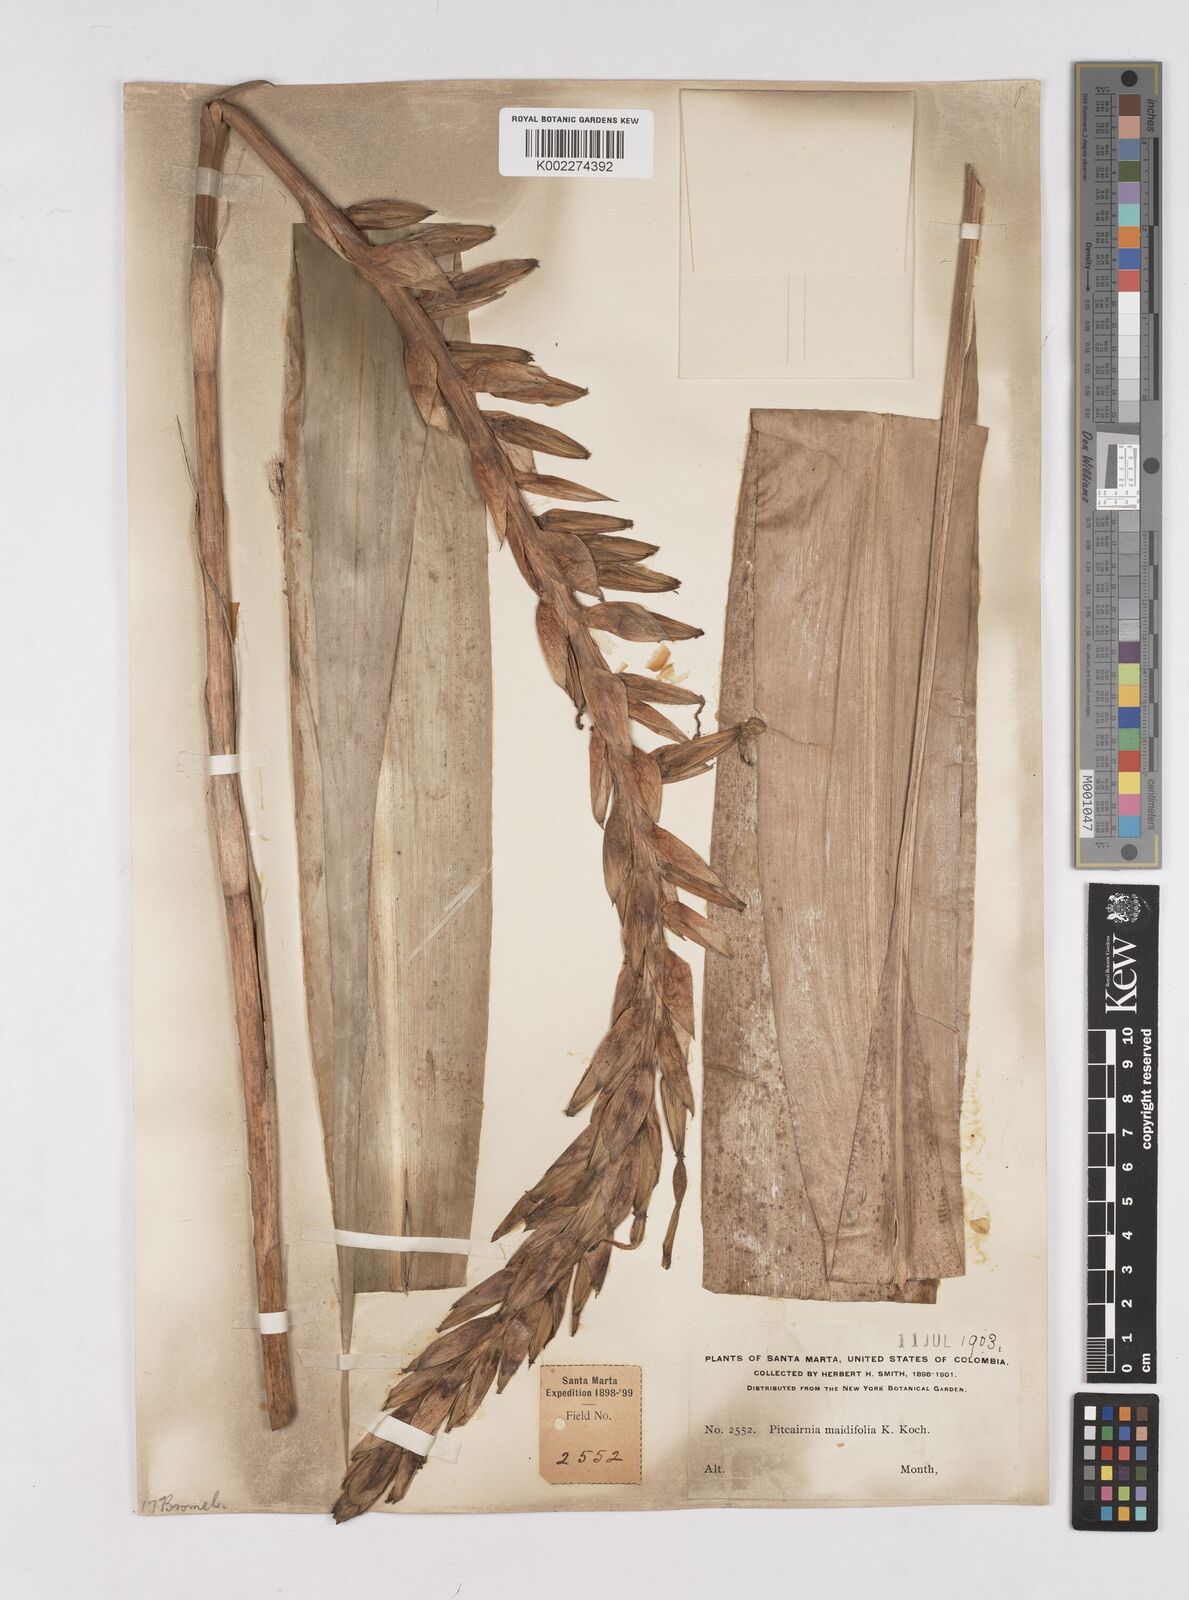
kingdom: Plantae
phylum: Tracheophyta
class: Liliopsida
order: Poales
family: Bromeliaceae
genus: Pitcairnia
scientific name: Pitcairnia
